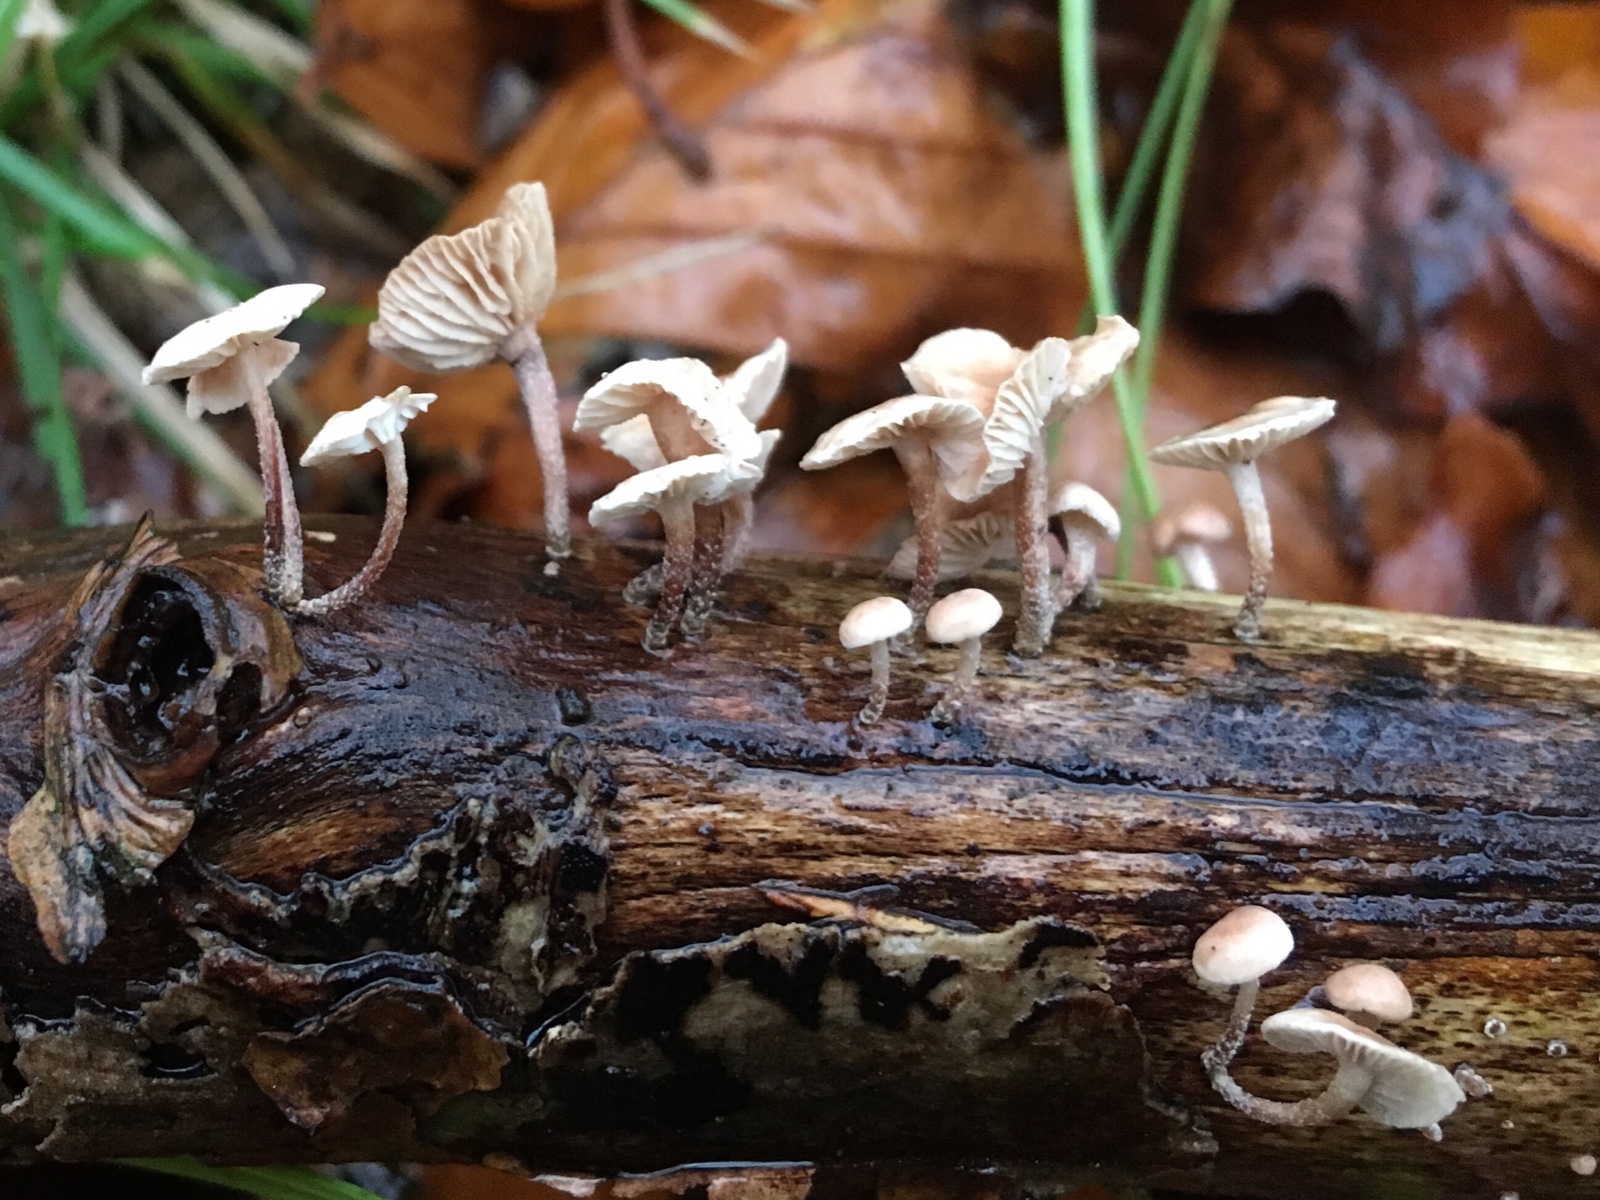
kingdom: Fungi
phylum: Basidiomycota
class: Agaricomycetes
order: Agaricales
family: Omphalotaceae
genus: Collybiopsis
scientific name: Collybiopsis ramealis
